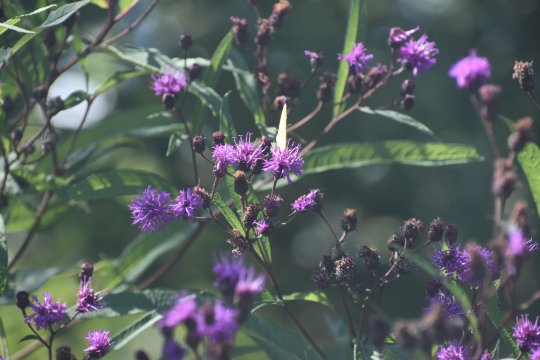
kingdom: Animalia
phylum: Arthropoda
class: Insecta
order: Lepidoptera
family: Pieridae
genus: Abaeis
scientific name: Abaeis nicippe
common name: Sleepy Orange
